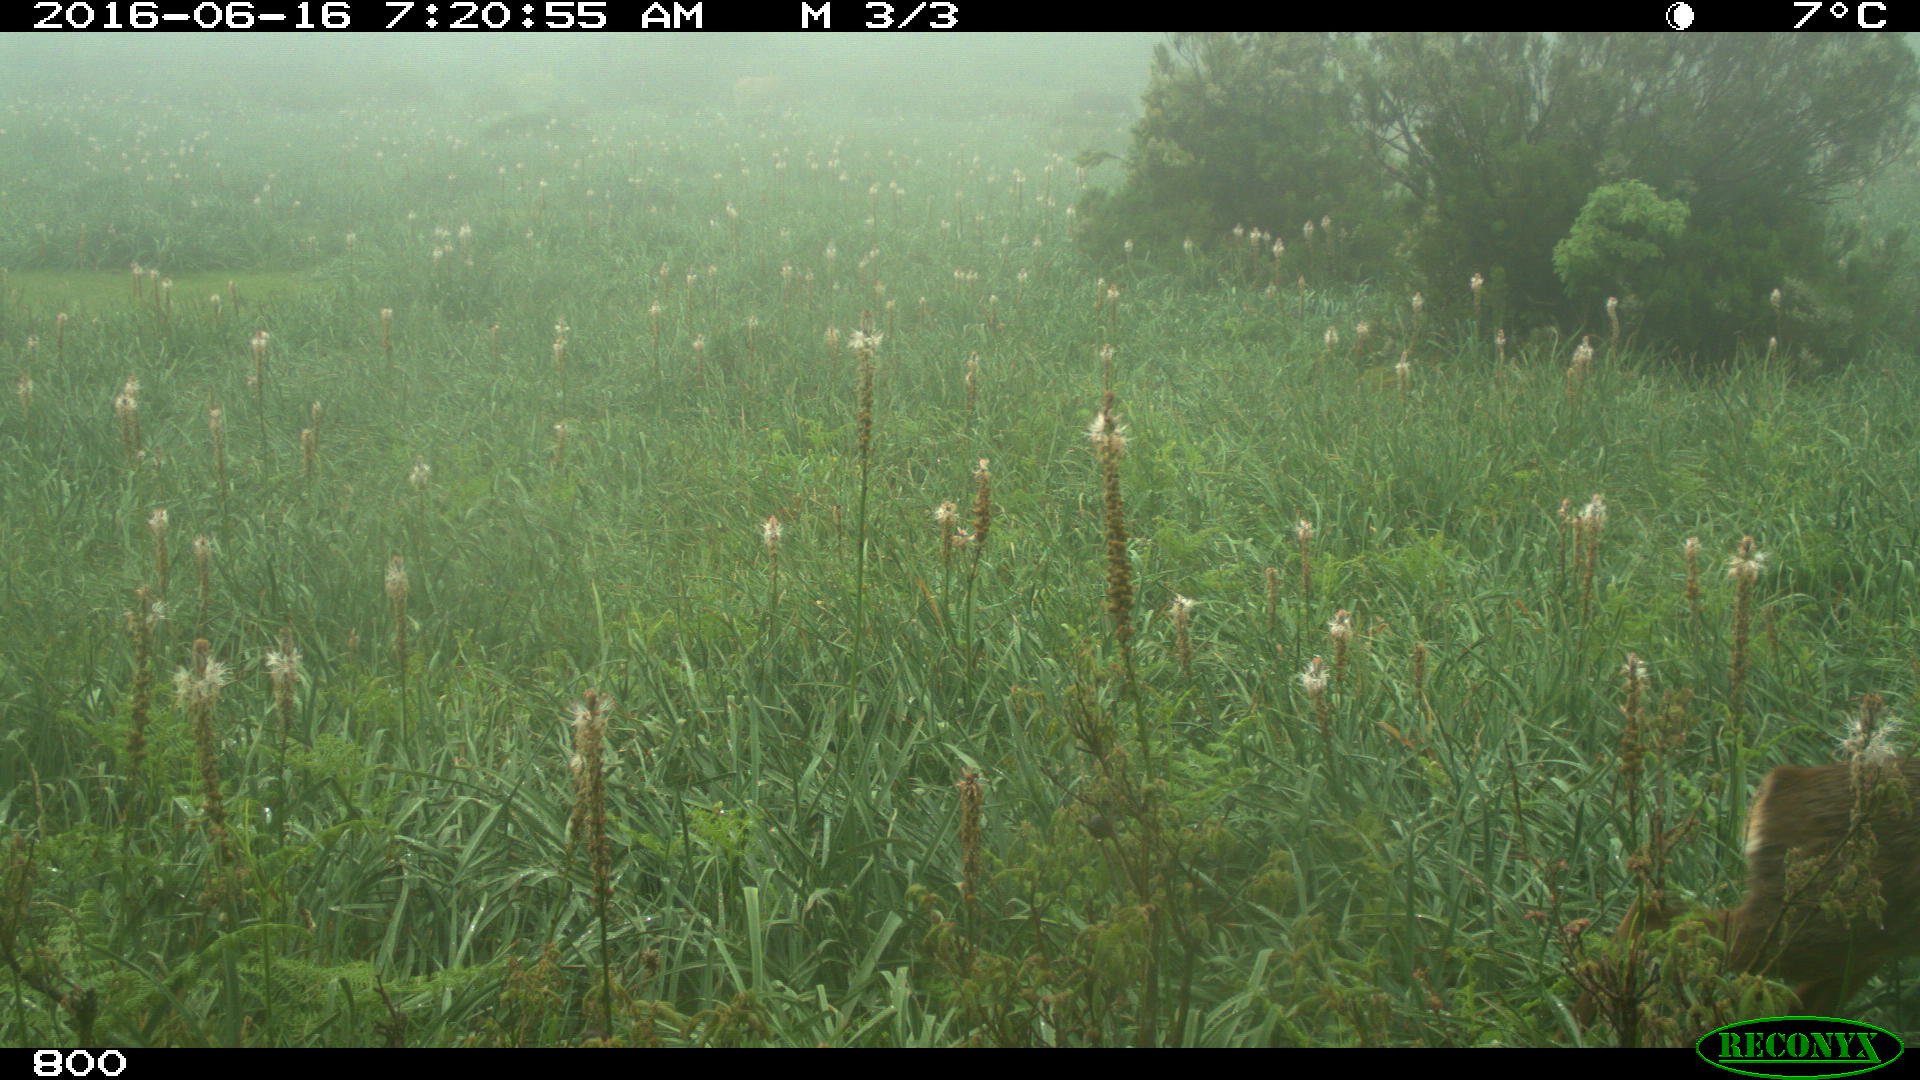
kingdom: Animalia
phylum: Chordata
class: Mammalia
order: Artiodactyla
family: Cervidae
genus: Capreolus
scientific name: Capreolus capreolus
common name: Western roe deer
